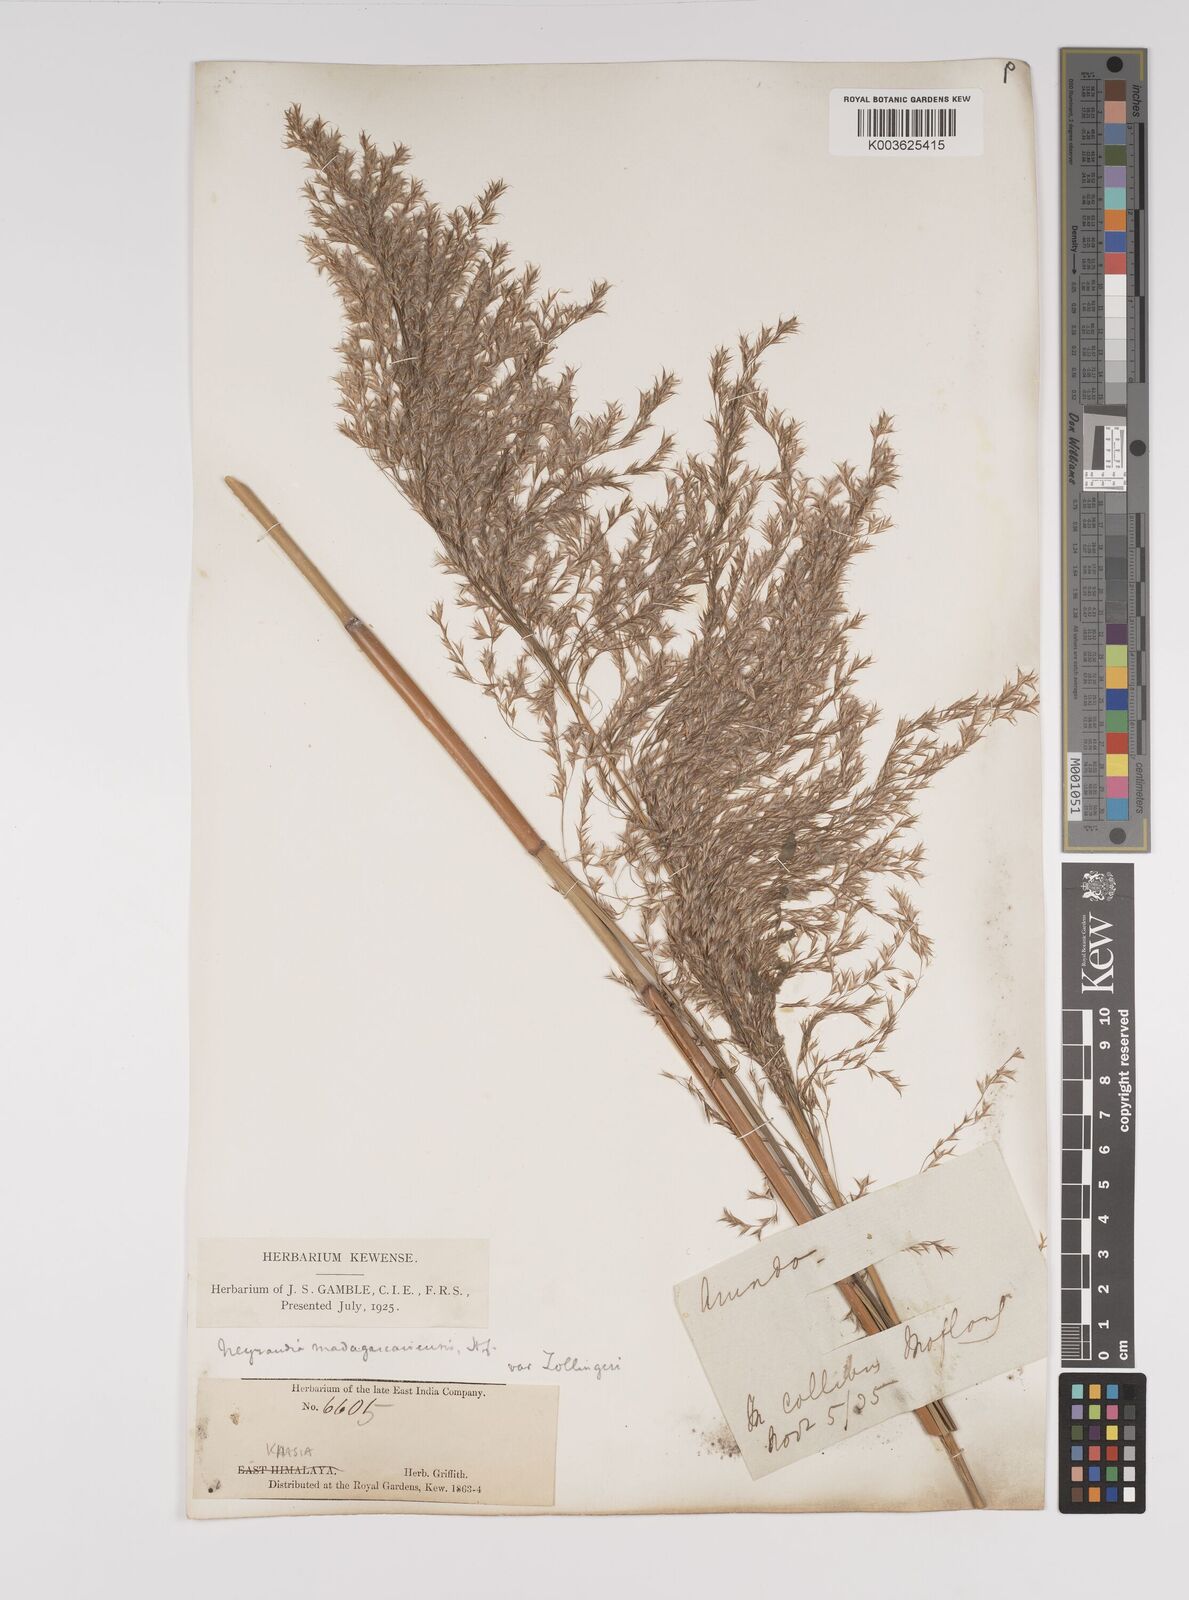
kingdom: Plantae
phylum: Tracheophyta
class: Liliopsida
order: Poales
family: Poaceae
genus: Neyraudia
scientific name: Neyraudia reynaudiana
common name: Silkreed
